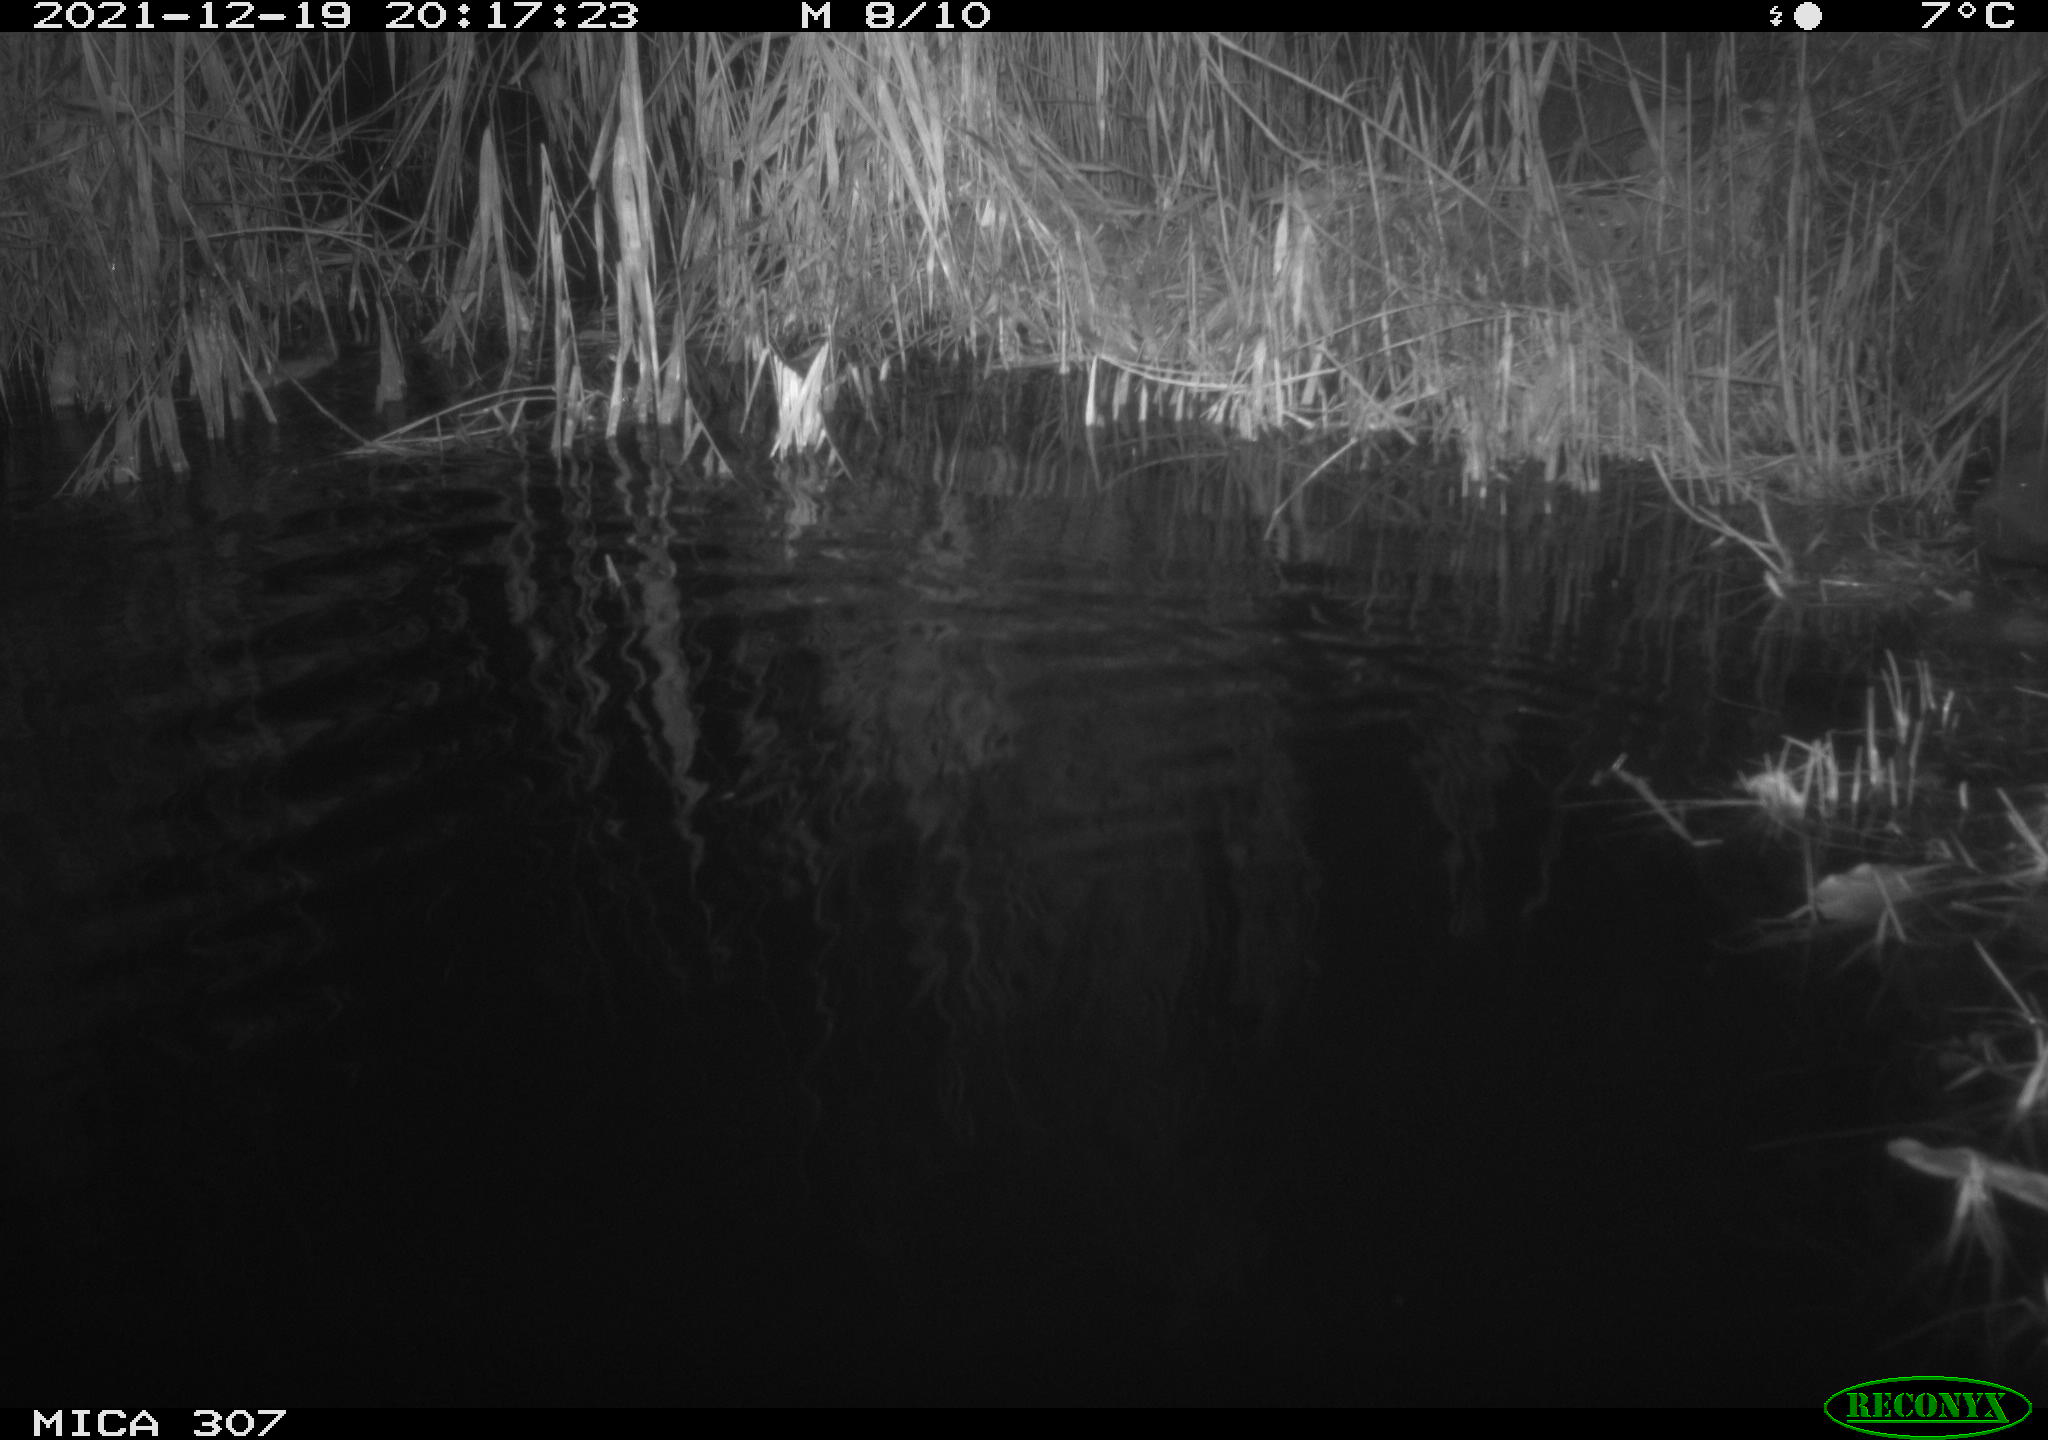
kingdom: Animalia
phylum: Chordata
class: Mammalia
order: Rodentia
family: Muridae
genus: Rattus
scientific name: Rattus norvegicus
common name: Brown rat
